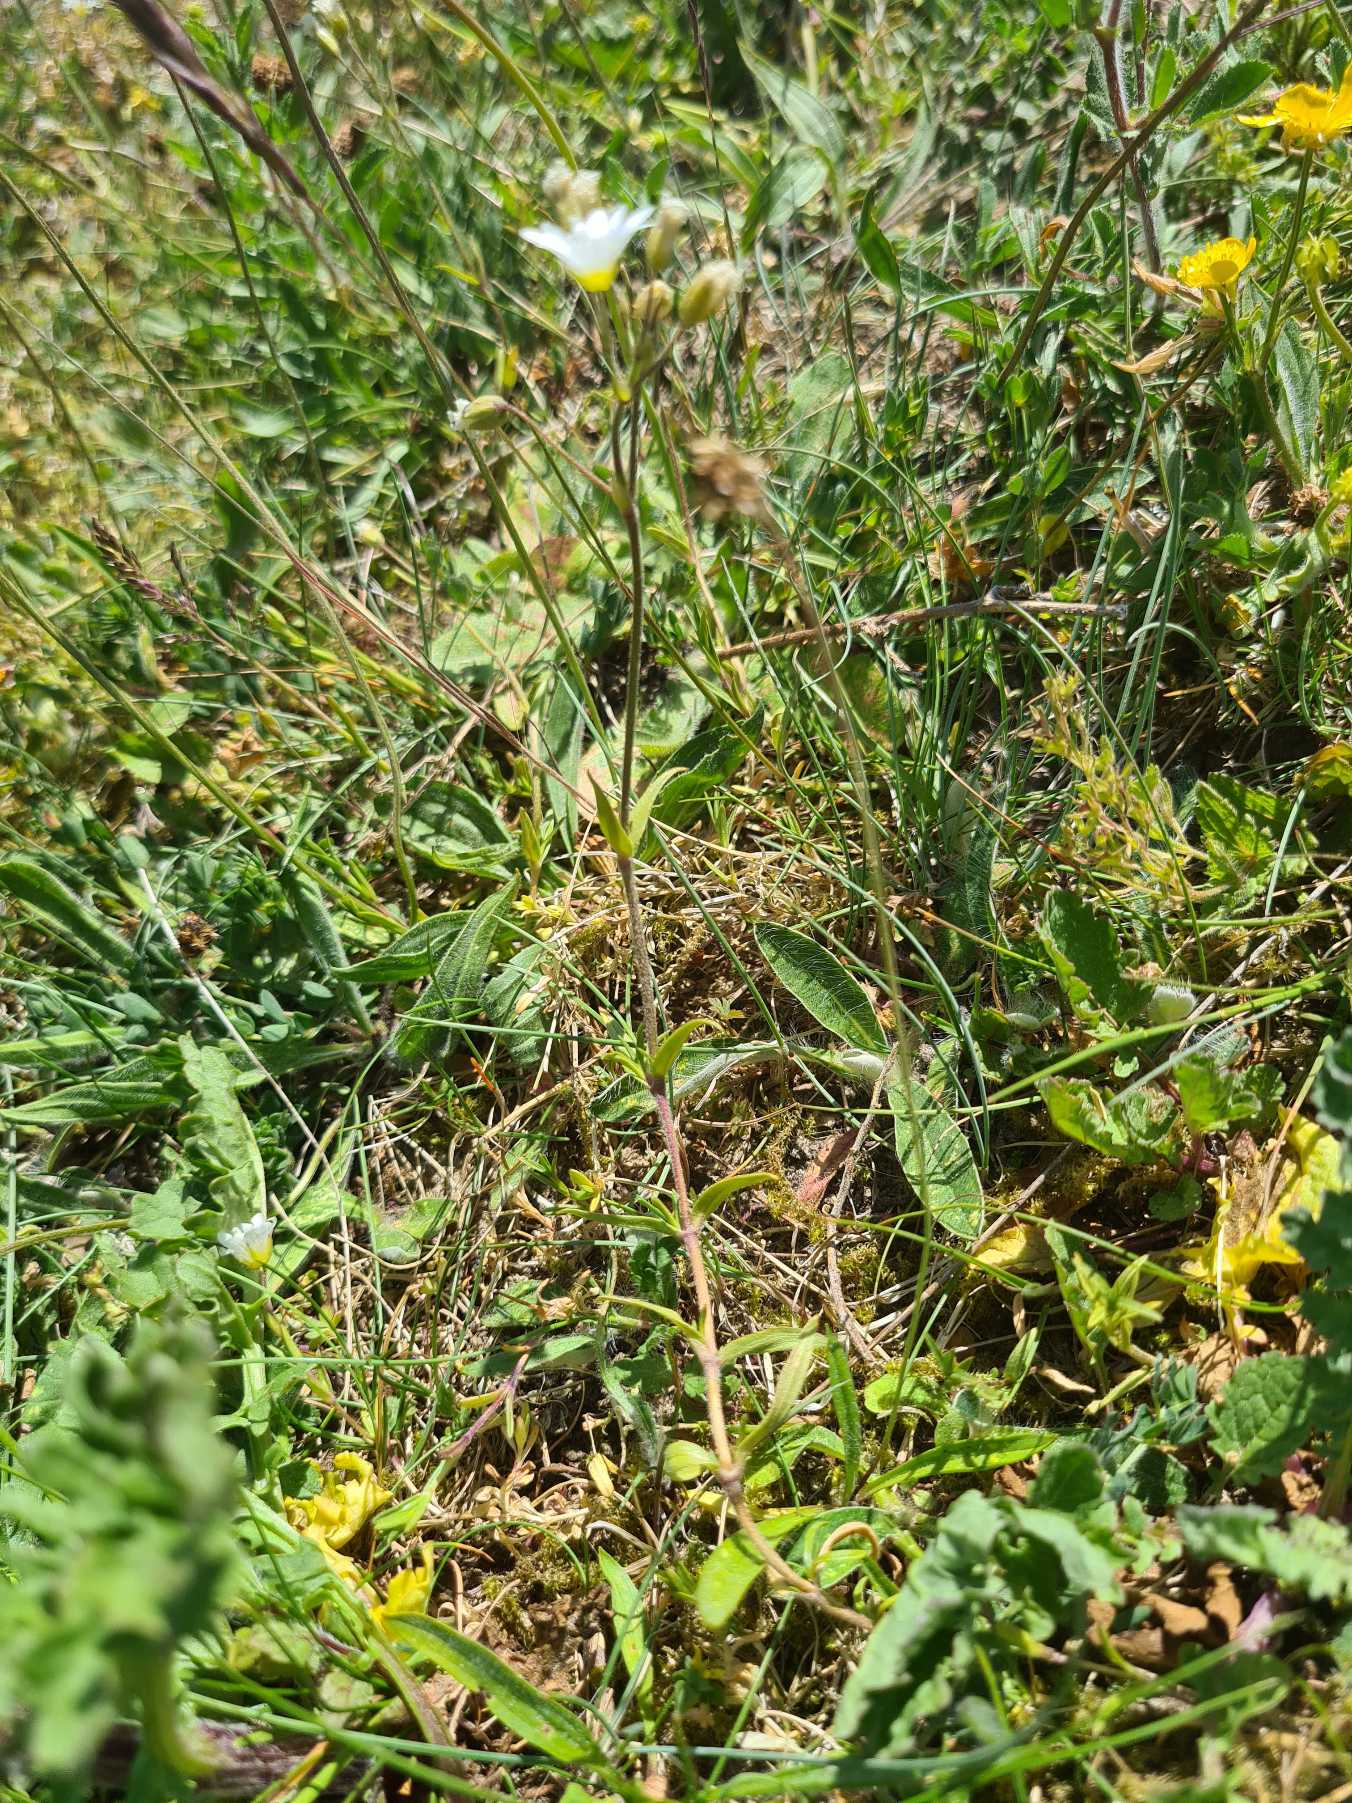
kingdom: Plantae
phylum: Tracheophyta
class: Magnoliopsida
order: Caryophyllales
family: Caryophyllaceae
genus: Cerastium
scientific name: Cerastium arvense
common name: Storblomstret hønsetarm
